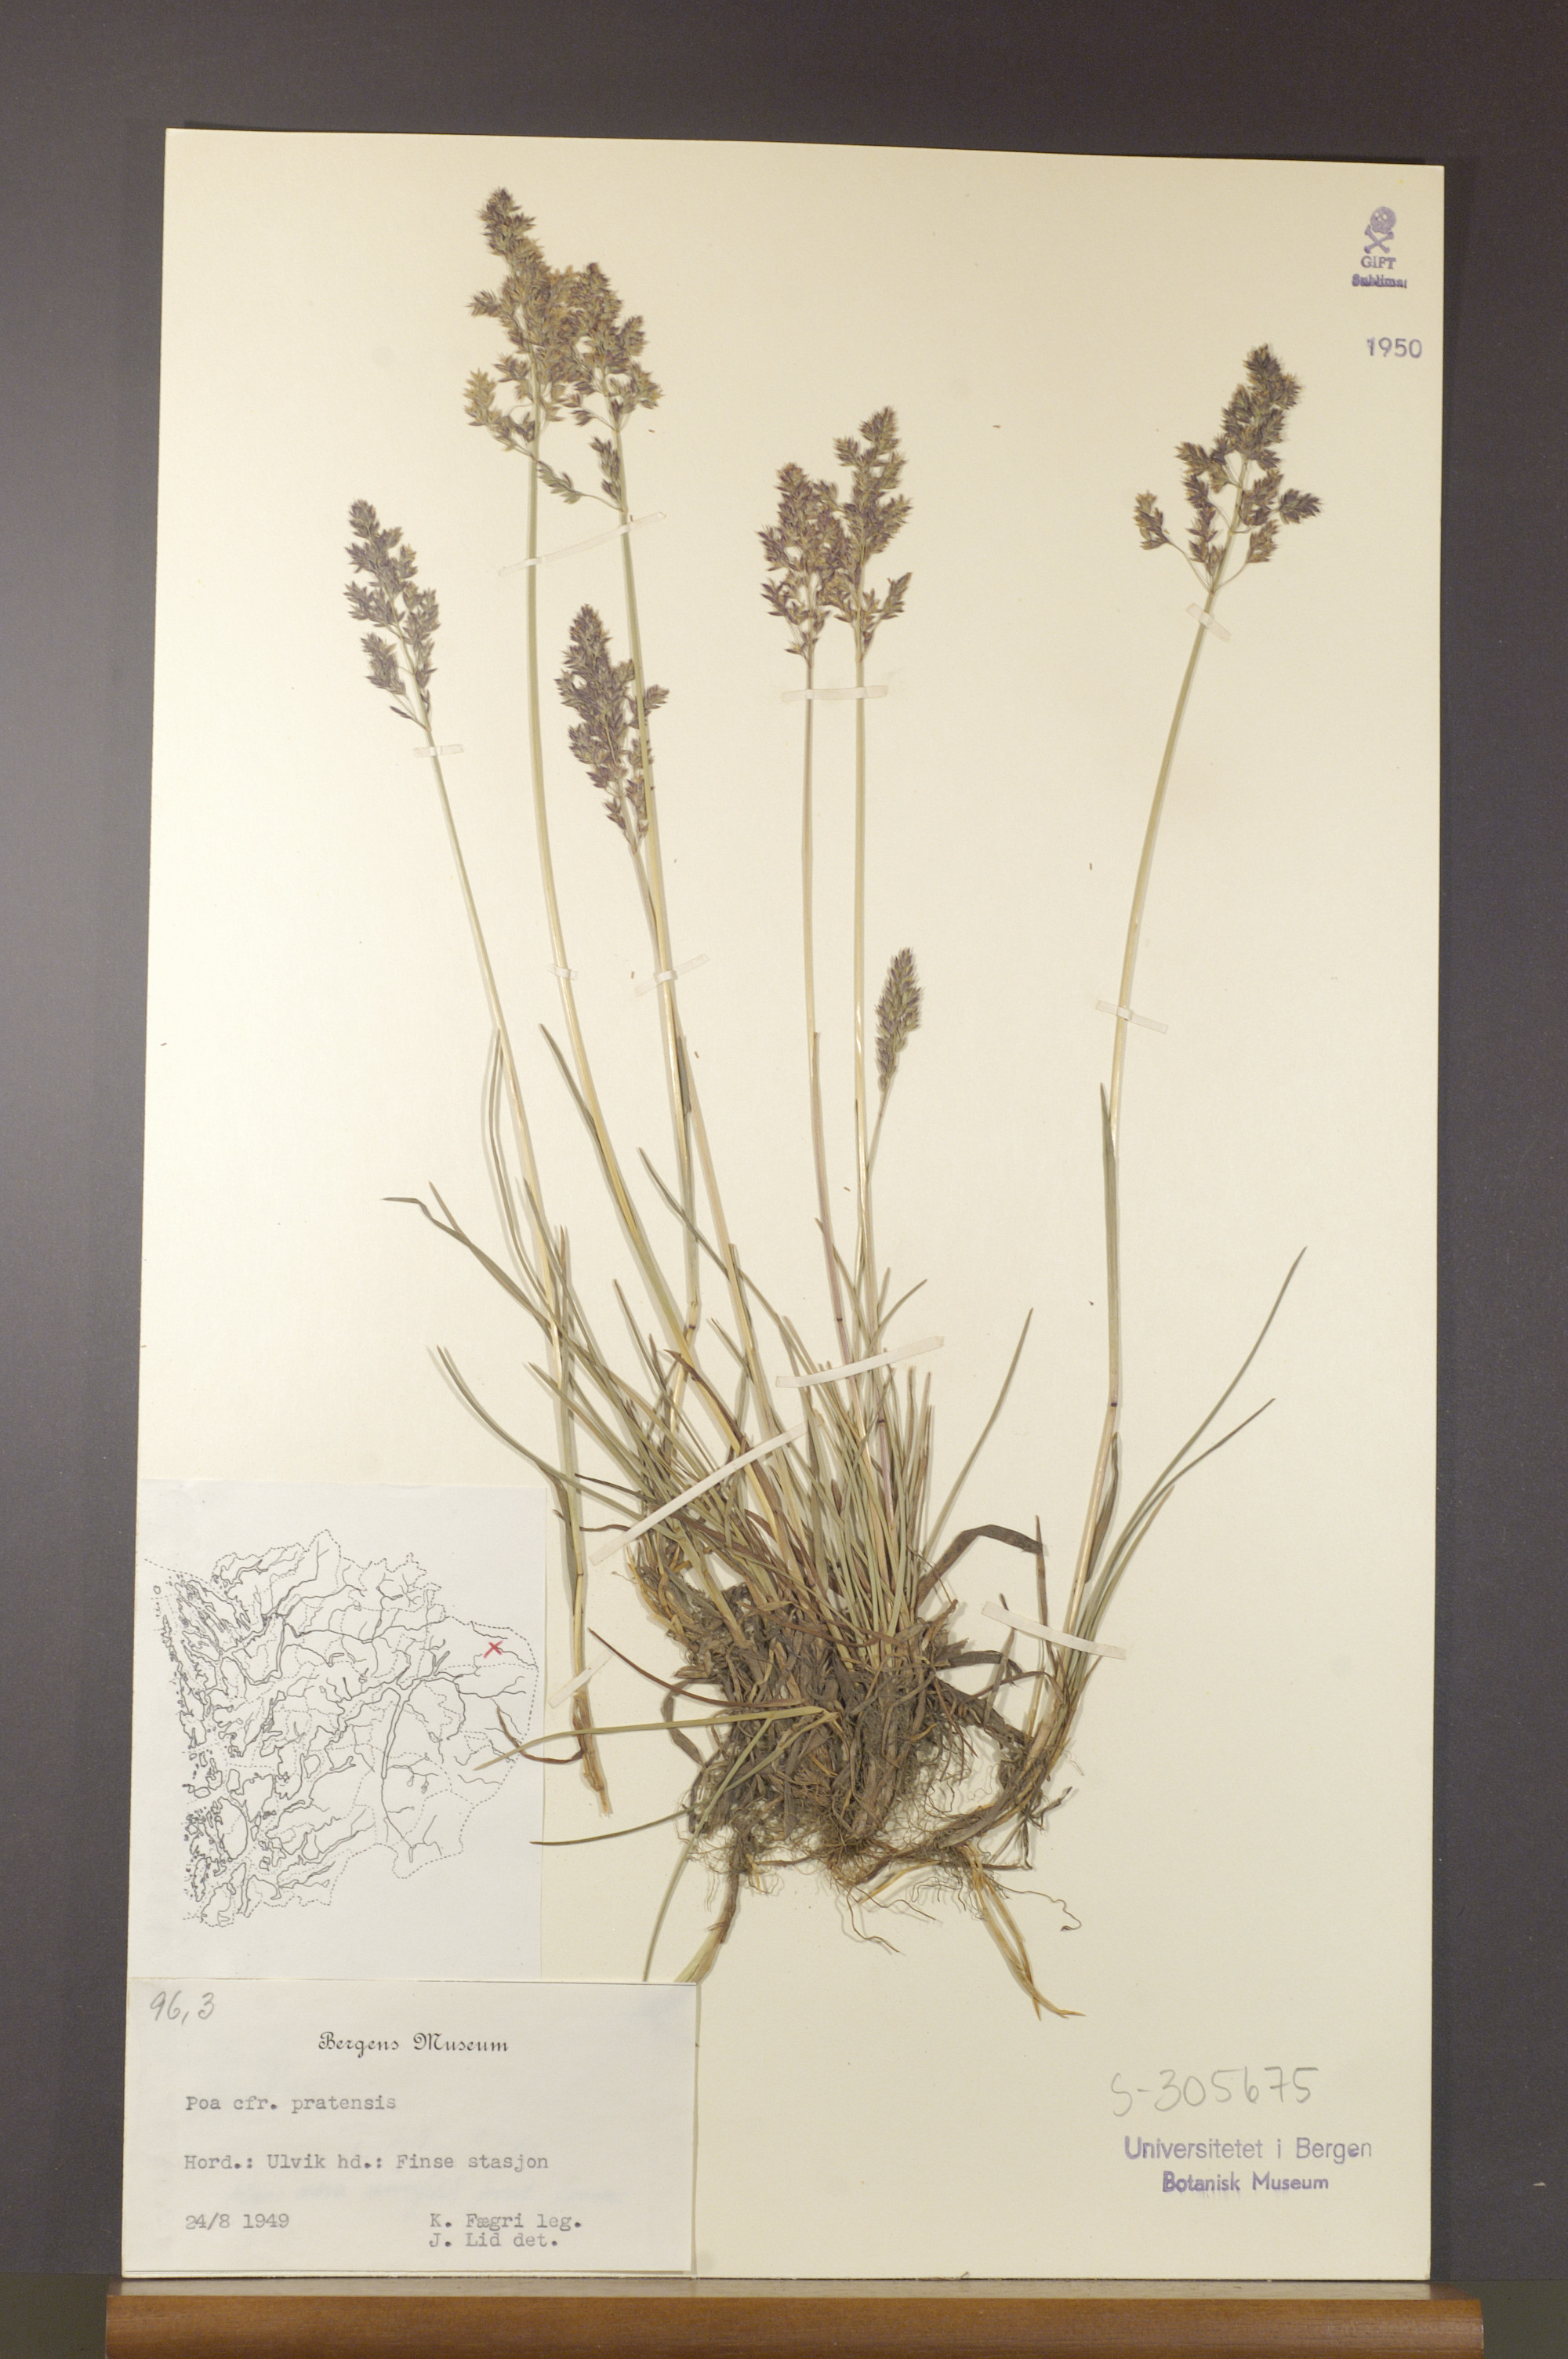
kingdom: Plantae
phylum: Tracheophyta
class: Liliopsida
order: Poales
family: Poaceae
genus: Poa
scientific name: Poa pratensis
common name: Kentucky bluegrass
